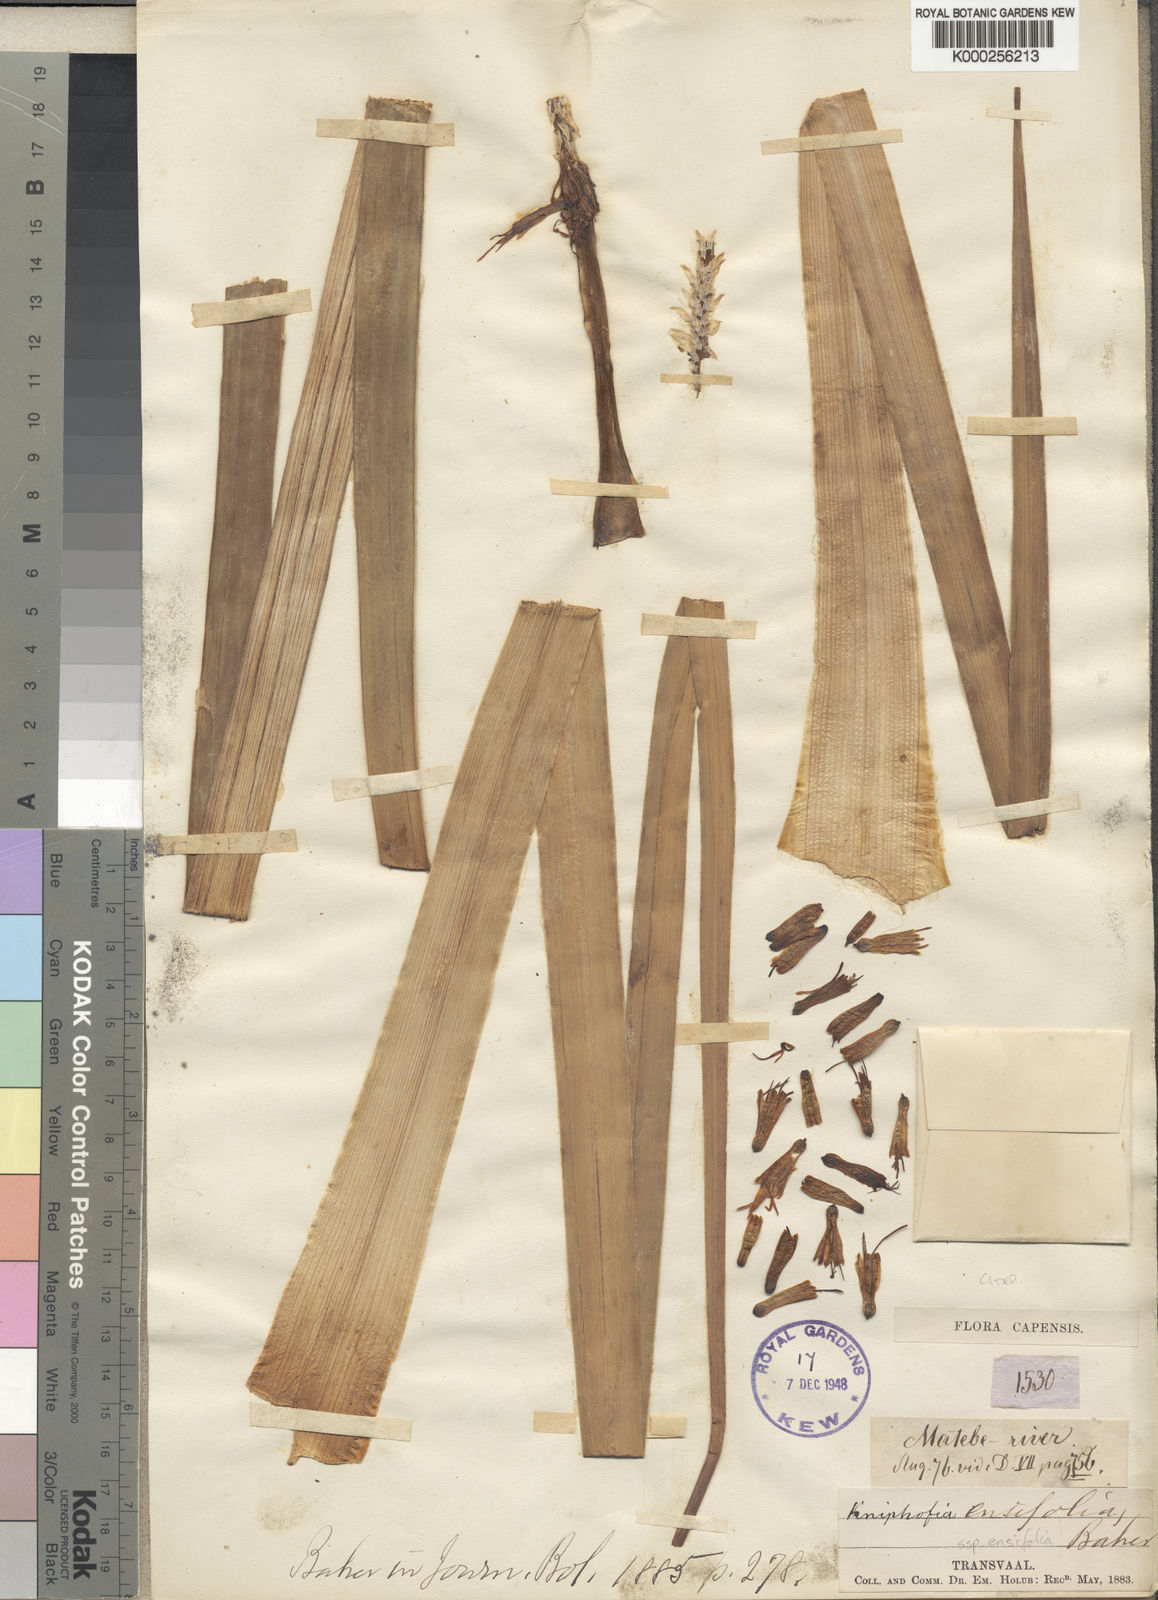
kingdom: Plantae
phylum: Tracheophyta
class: Liliopsida
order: Asparagales
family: Asphodelaceae
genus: Kniphofia
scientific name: Kniphofia ensifolia
